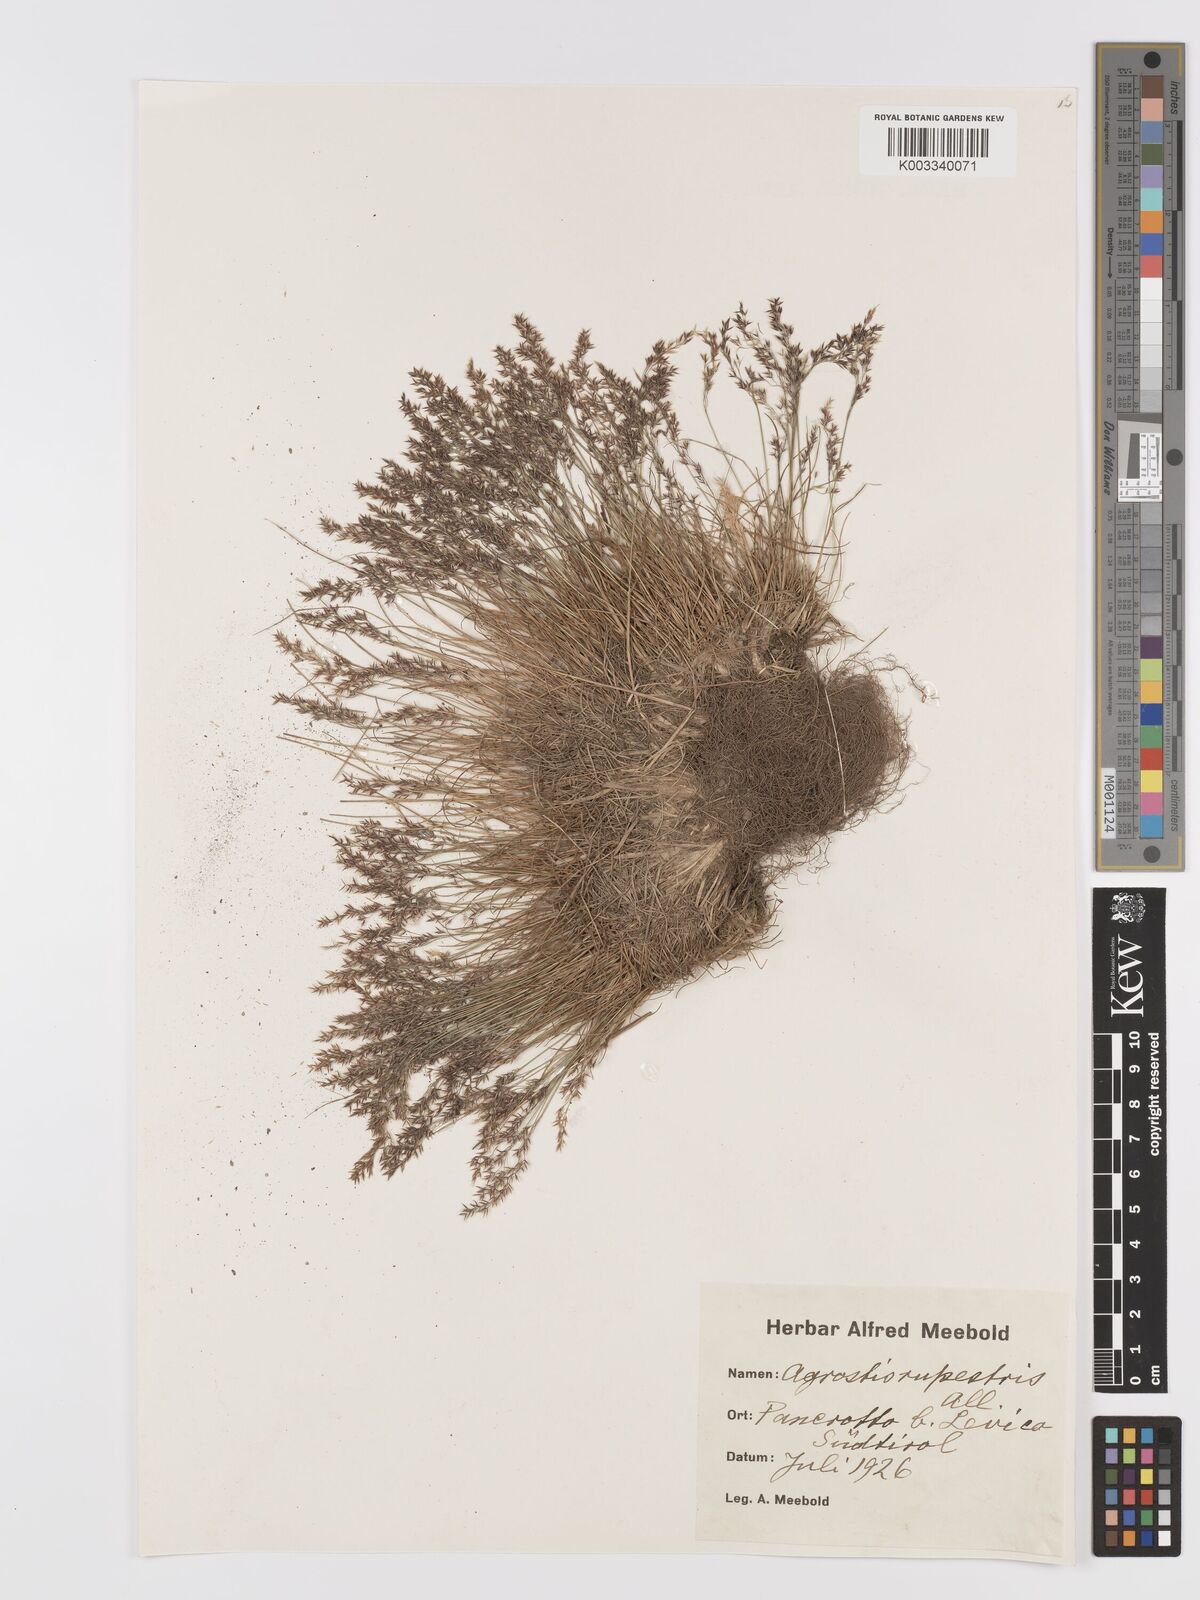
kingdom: Plantae
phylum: Tracheophyta
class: Liliopsida
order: Poales
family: Poaceae
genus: Agrostis
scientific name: Agrostis rupestris
